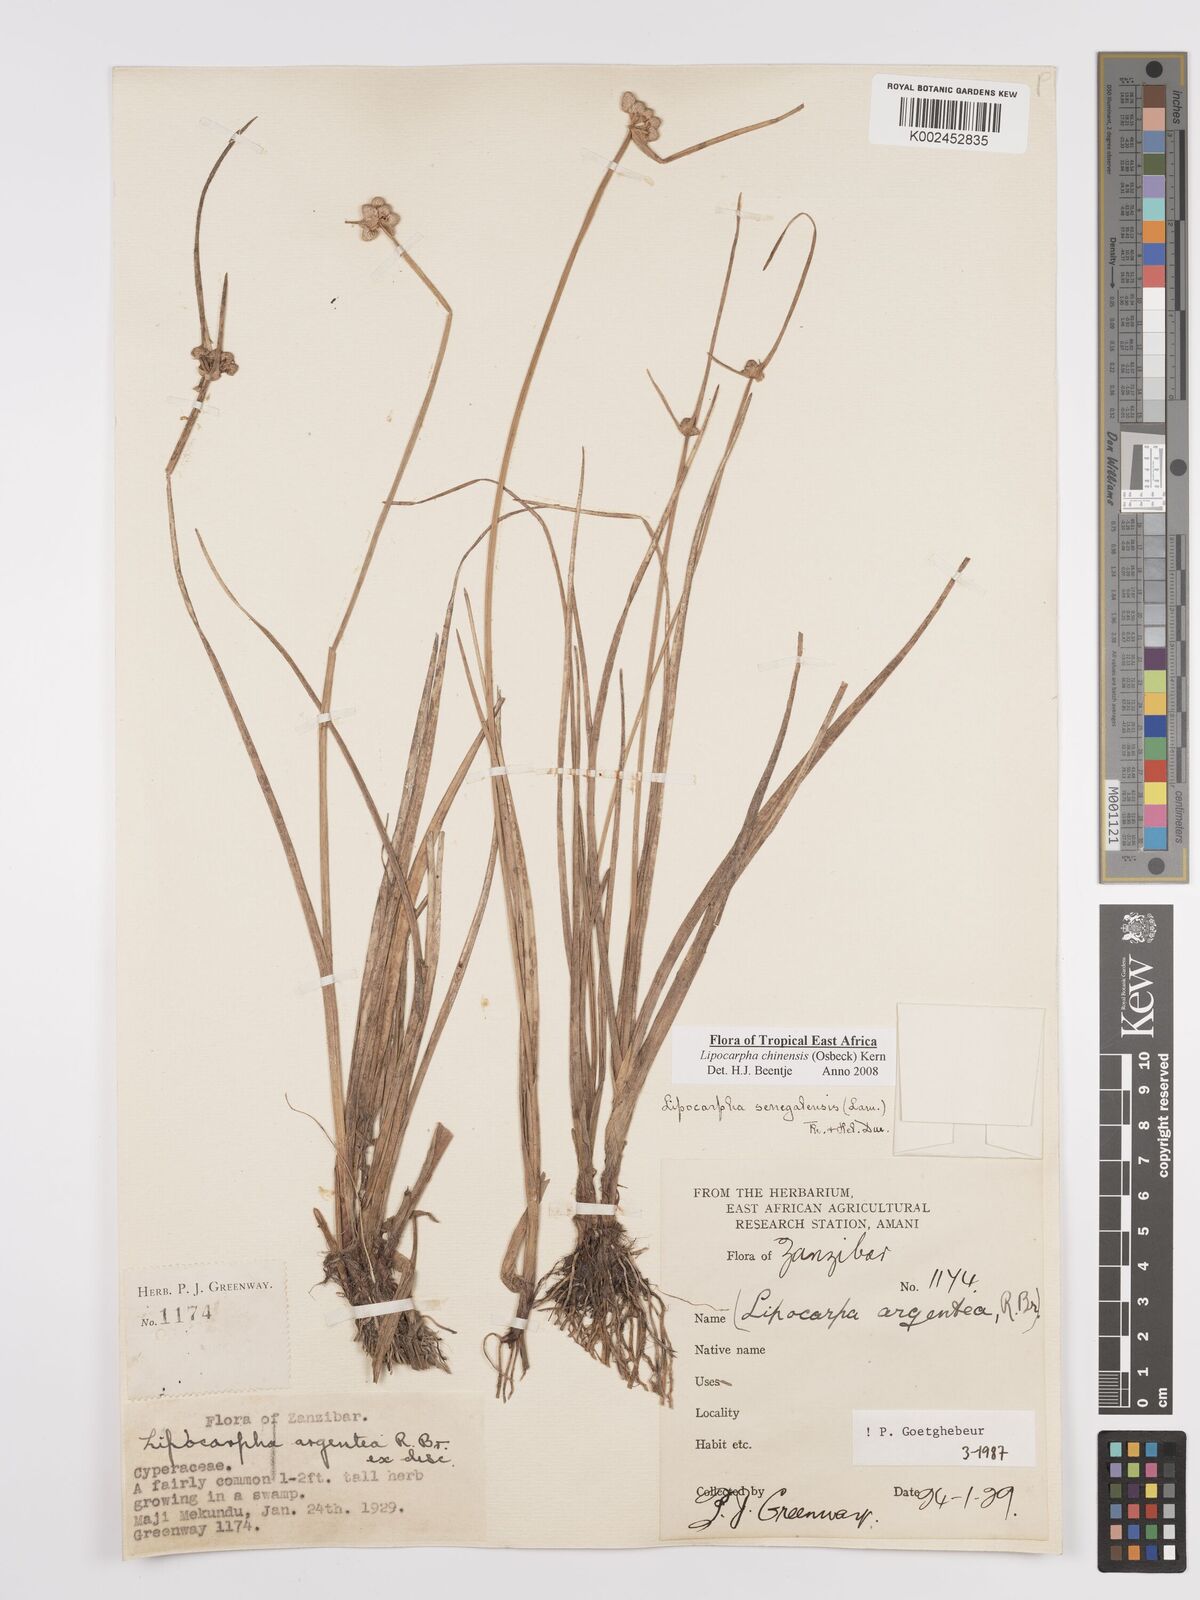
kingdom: Plantae
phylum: Tracheophyta
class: Liliopsida
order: Poales
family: Cyperaceae
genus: Cyperus
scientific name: Cyperus
